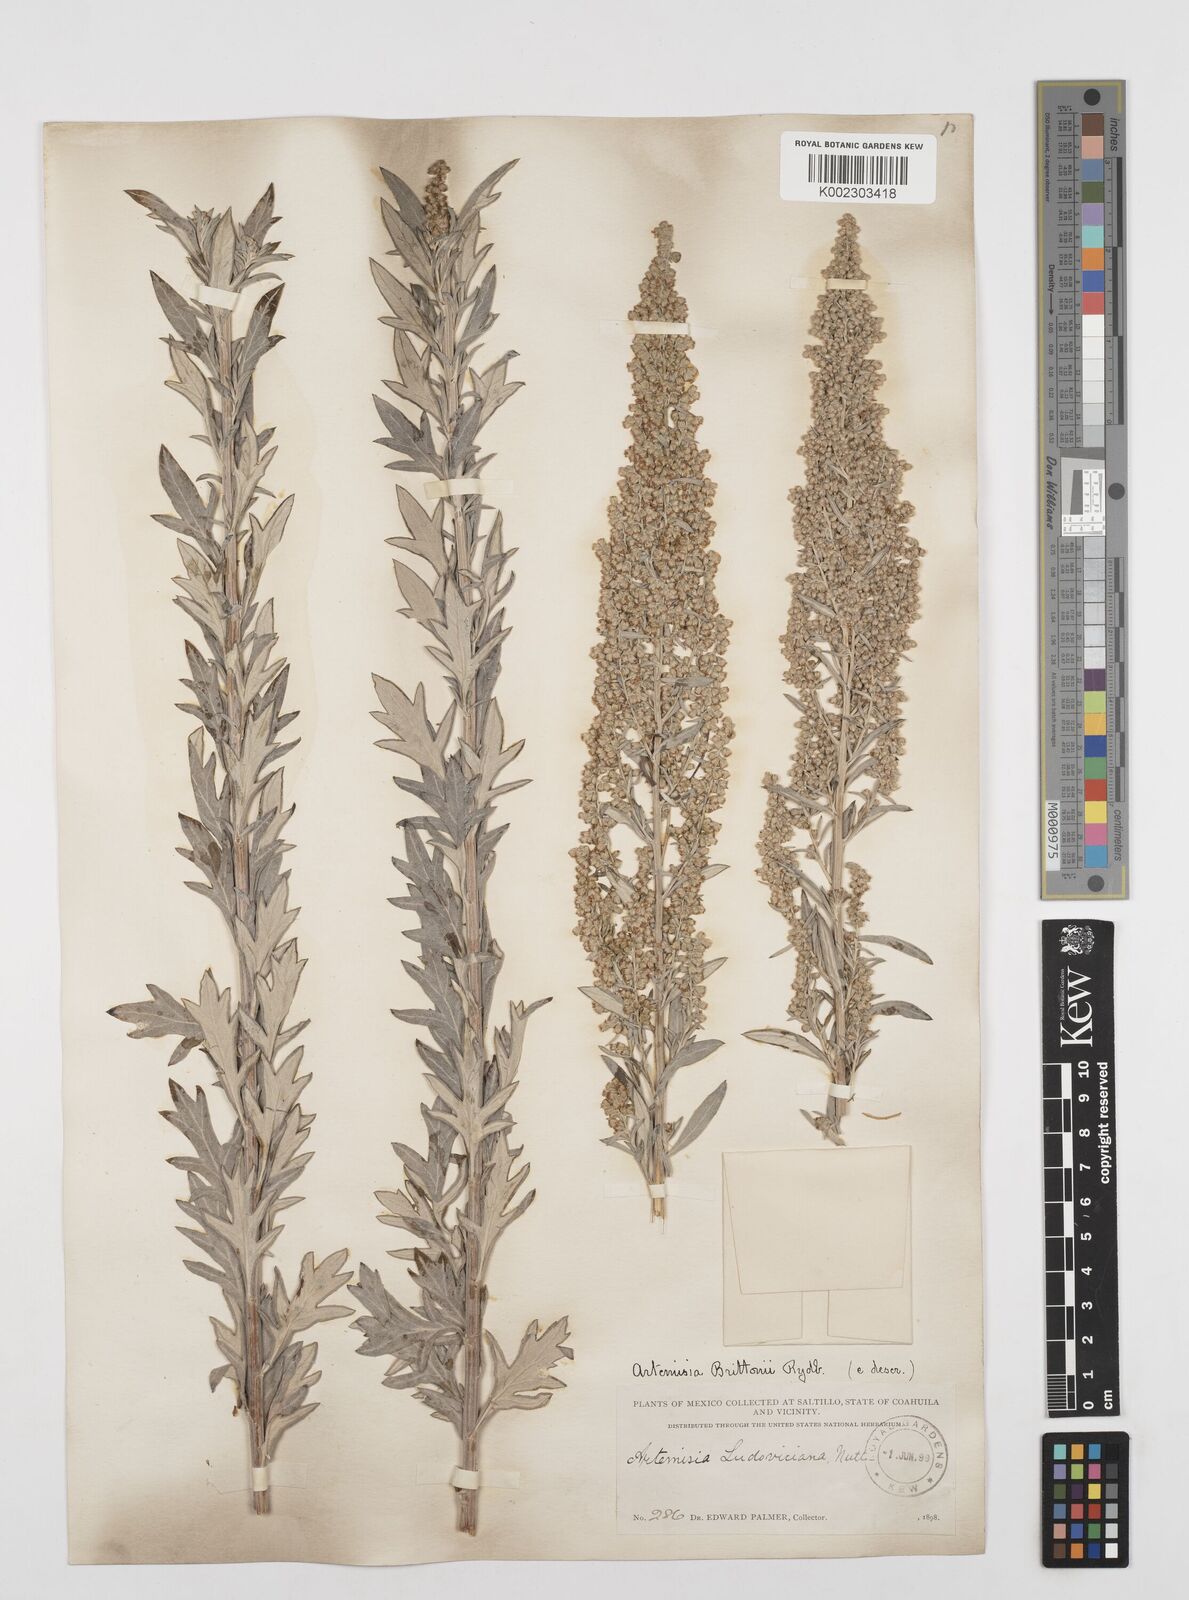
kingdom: Plantae
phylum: Tracheophyta
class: Magnoliopsida
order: Asterales
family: Asteraceae
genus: Artemisia
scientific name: Artemisia ludoviciana
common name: Western mugwort
